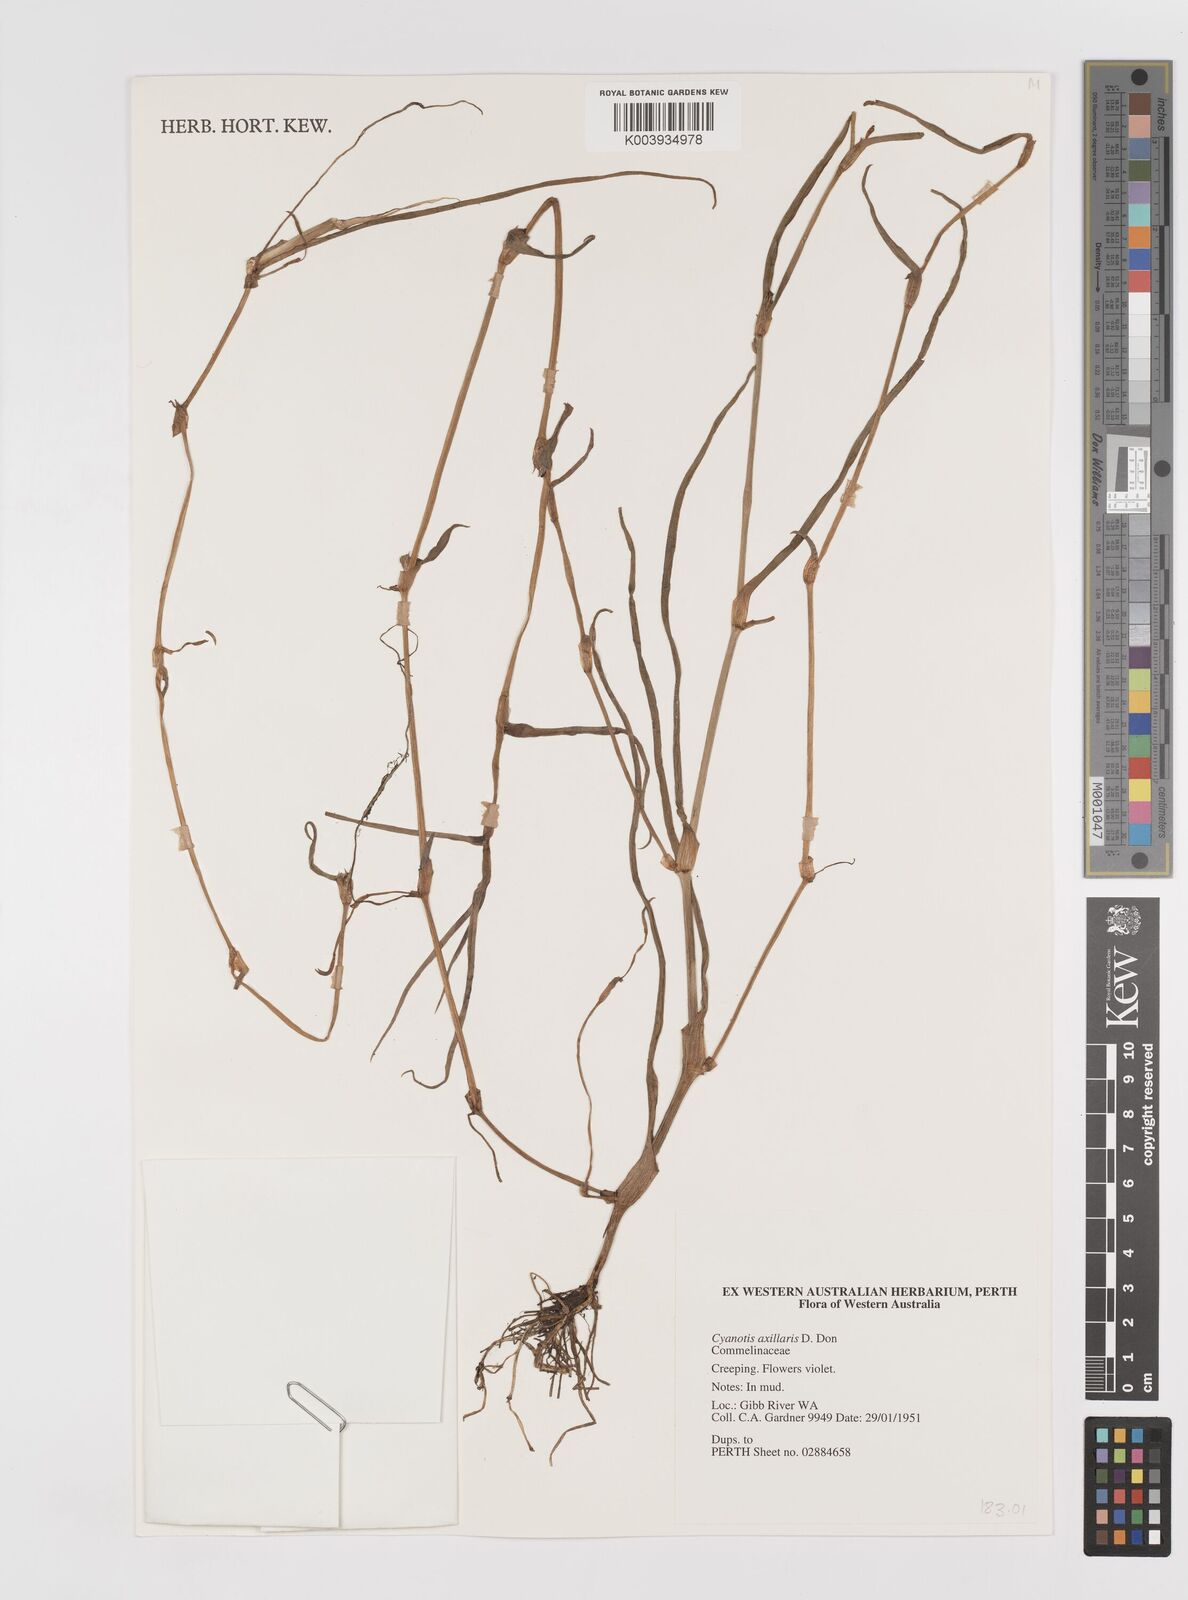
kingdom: Plantae
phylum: Tracheophyta
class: Liliopsida
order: Commelinales
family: Commelinaceae
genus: Cyanotis
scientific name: Cyanotis axillaris
